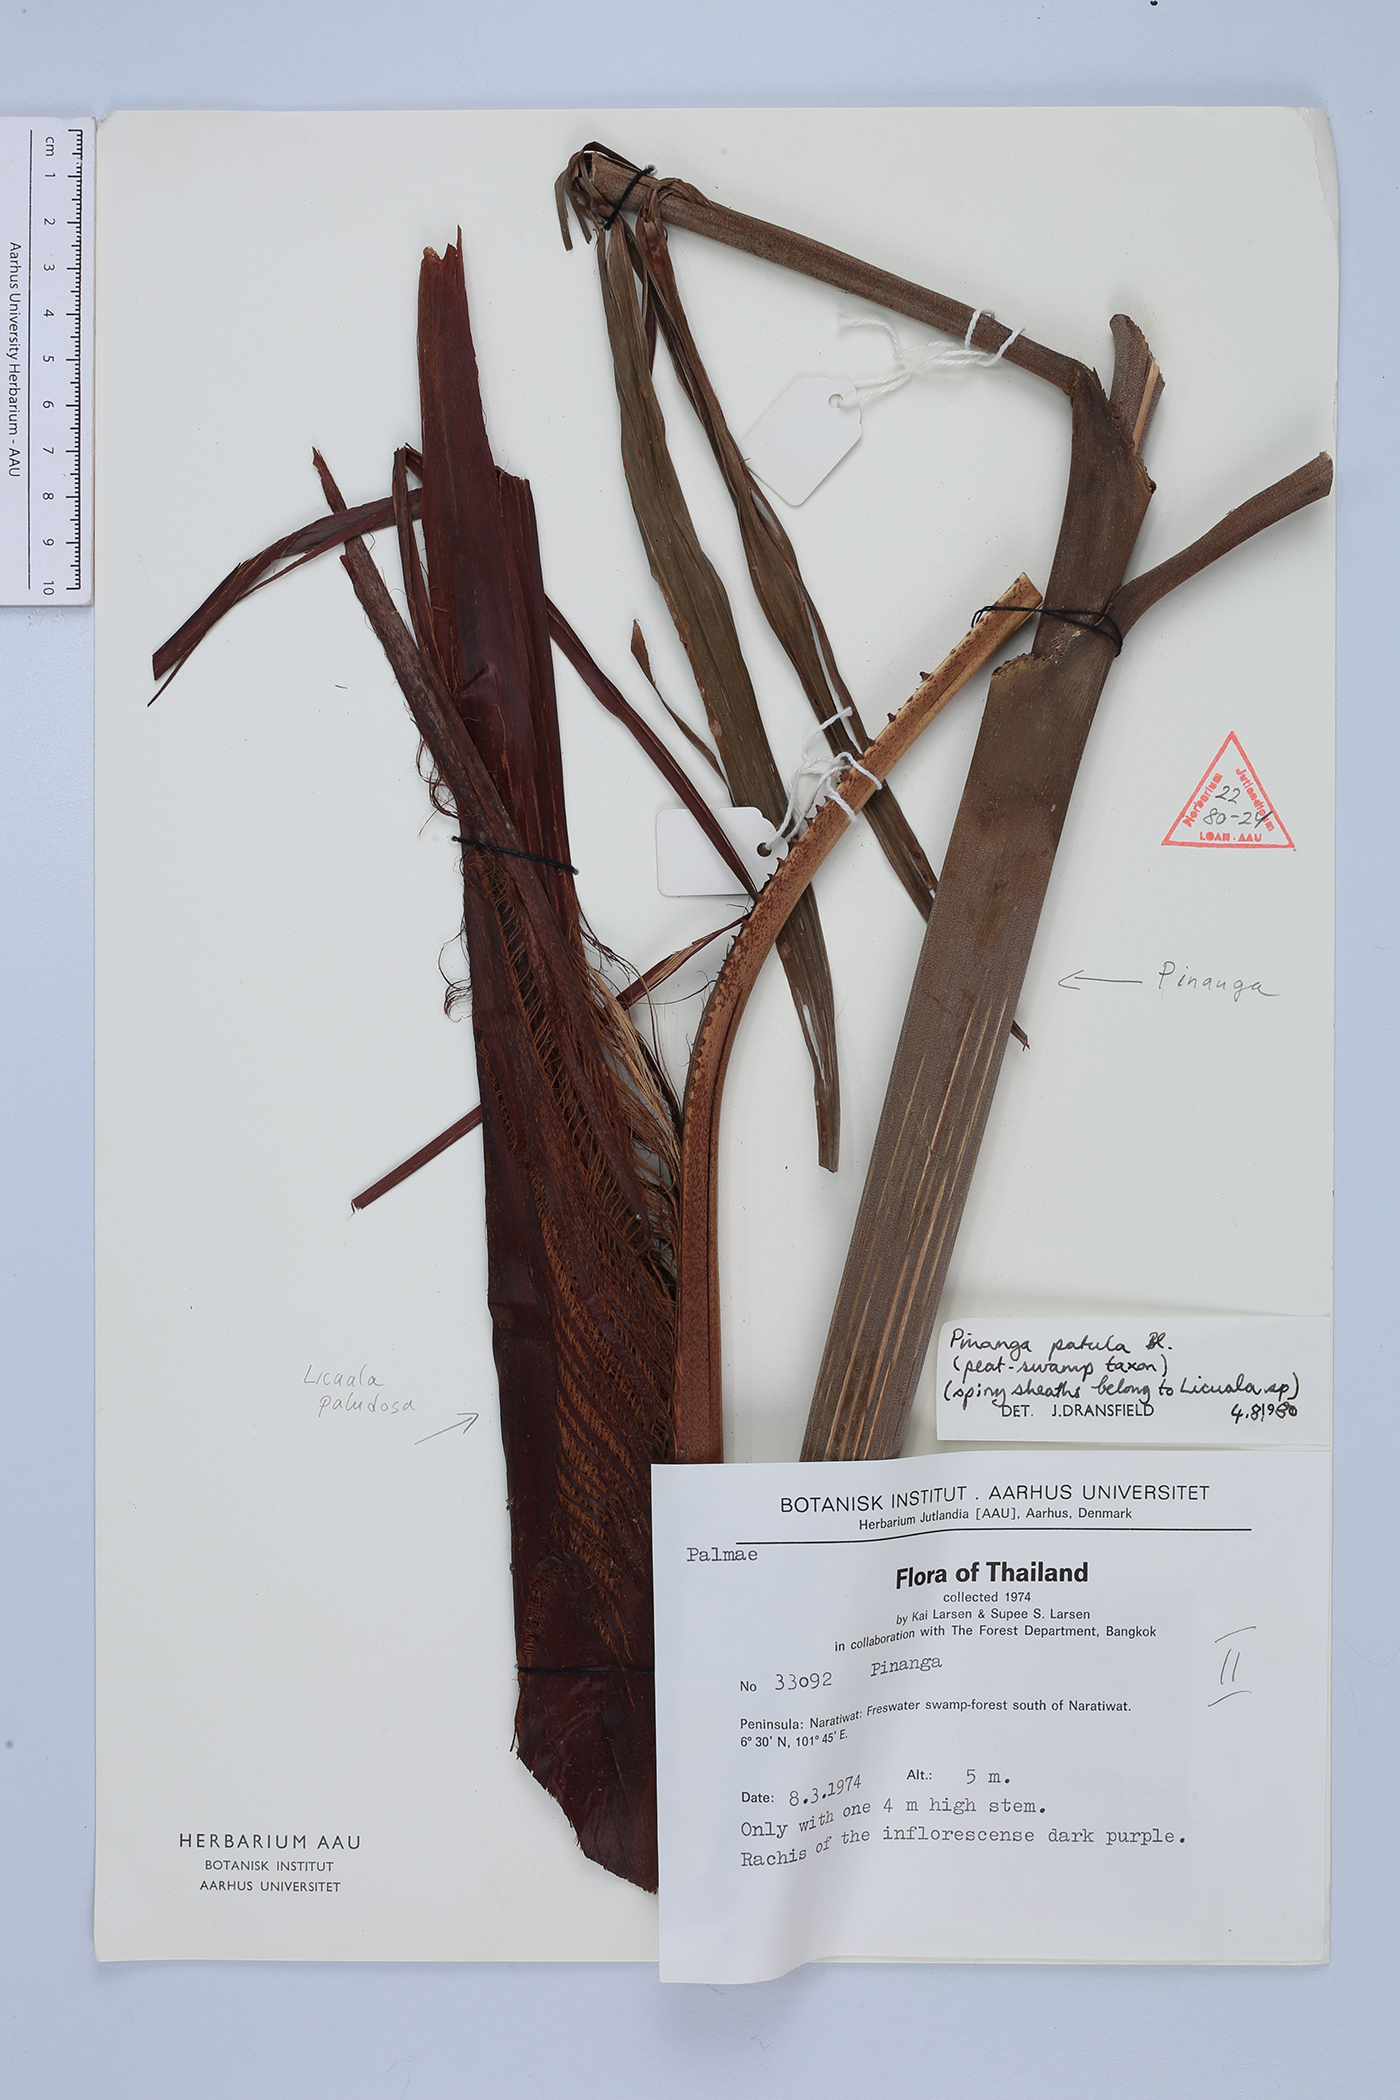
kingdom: Plantae
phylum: Tracheophyta
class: Liliopsida
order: Arecales
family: Arecaceae
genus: Pinanga
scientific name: Pinanga patula
